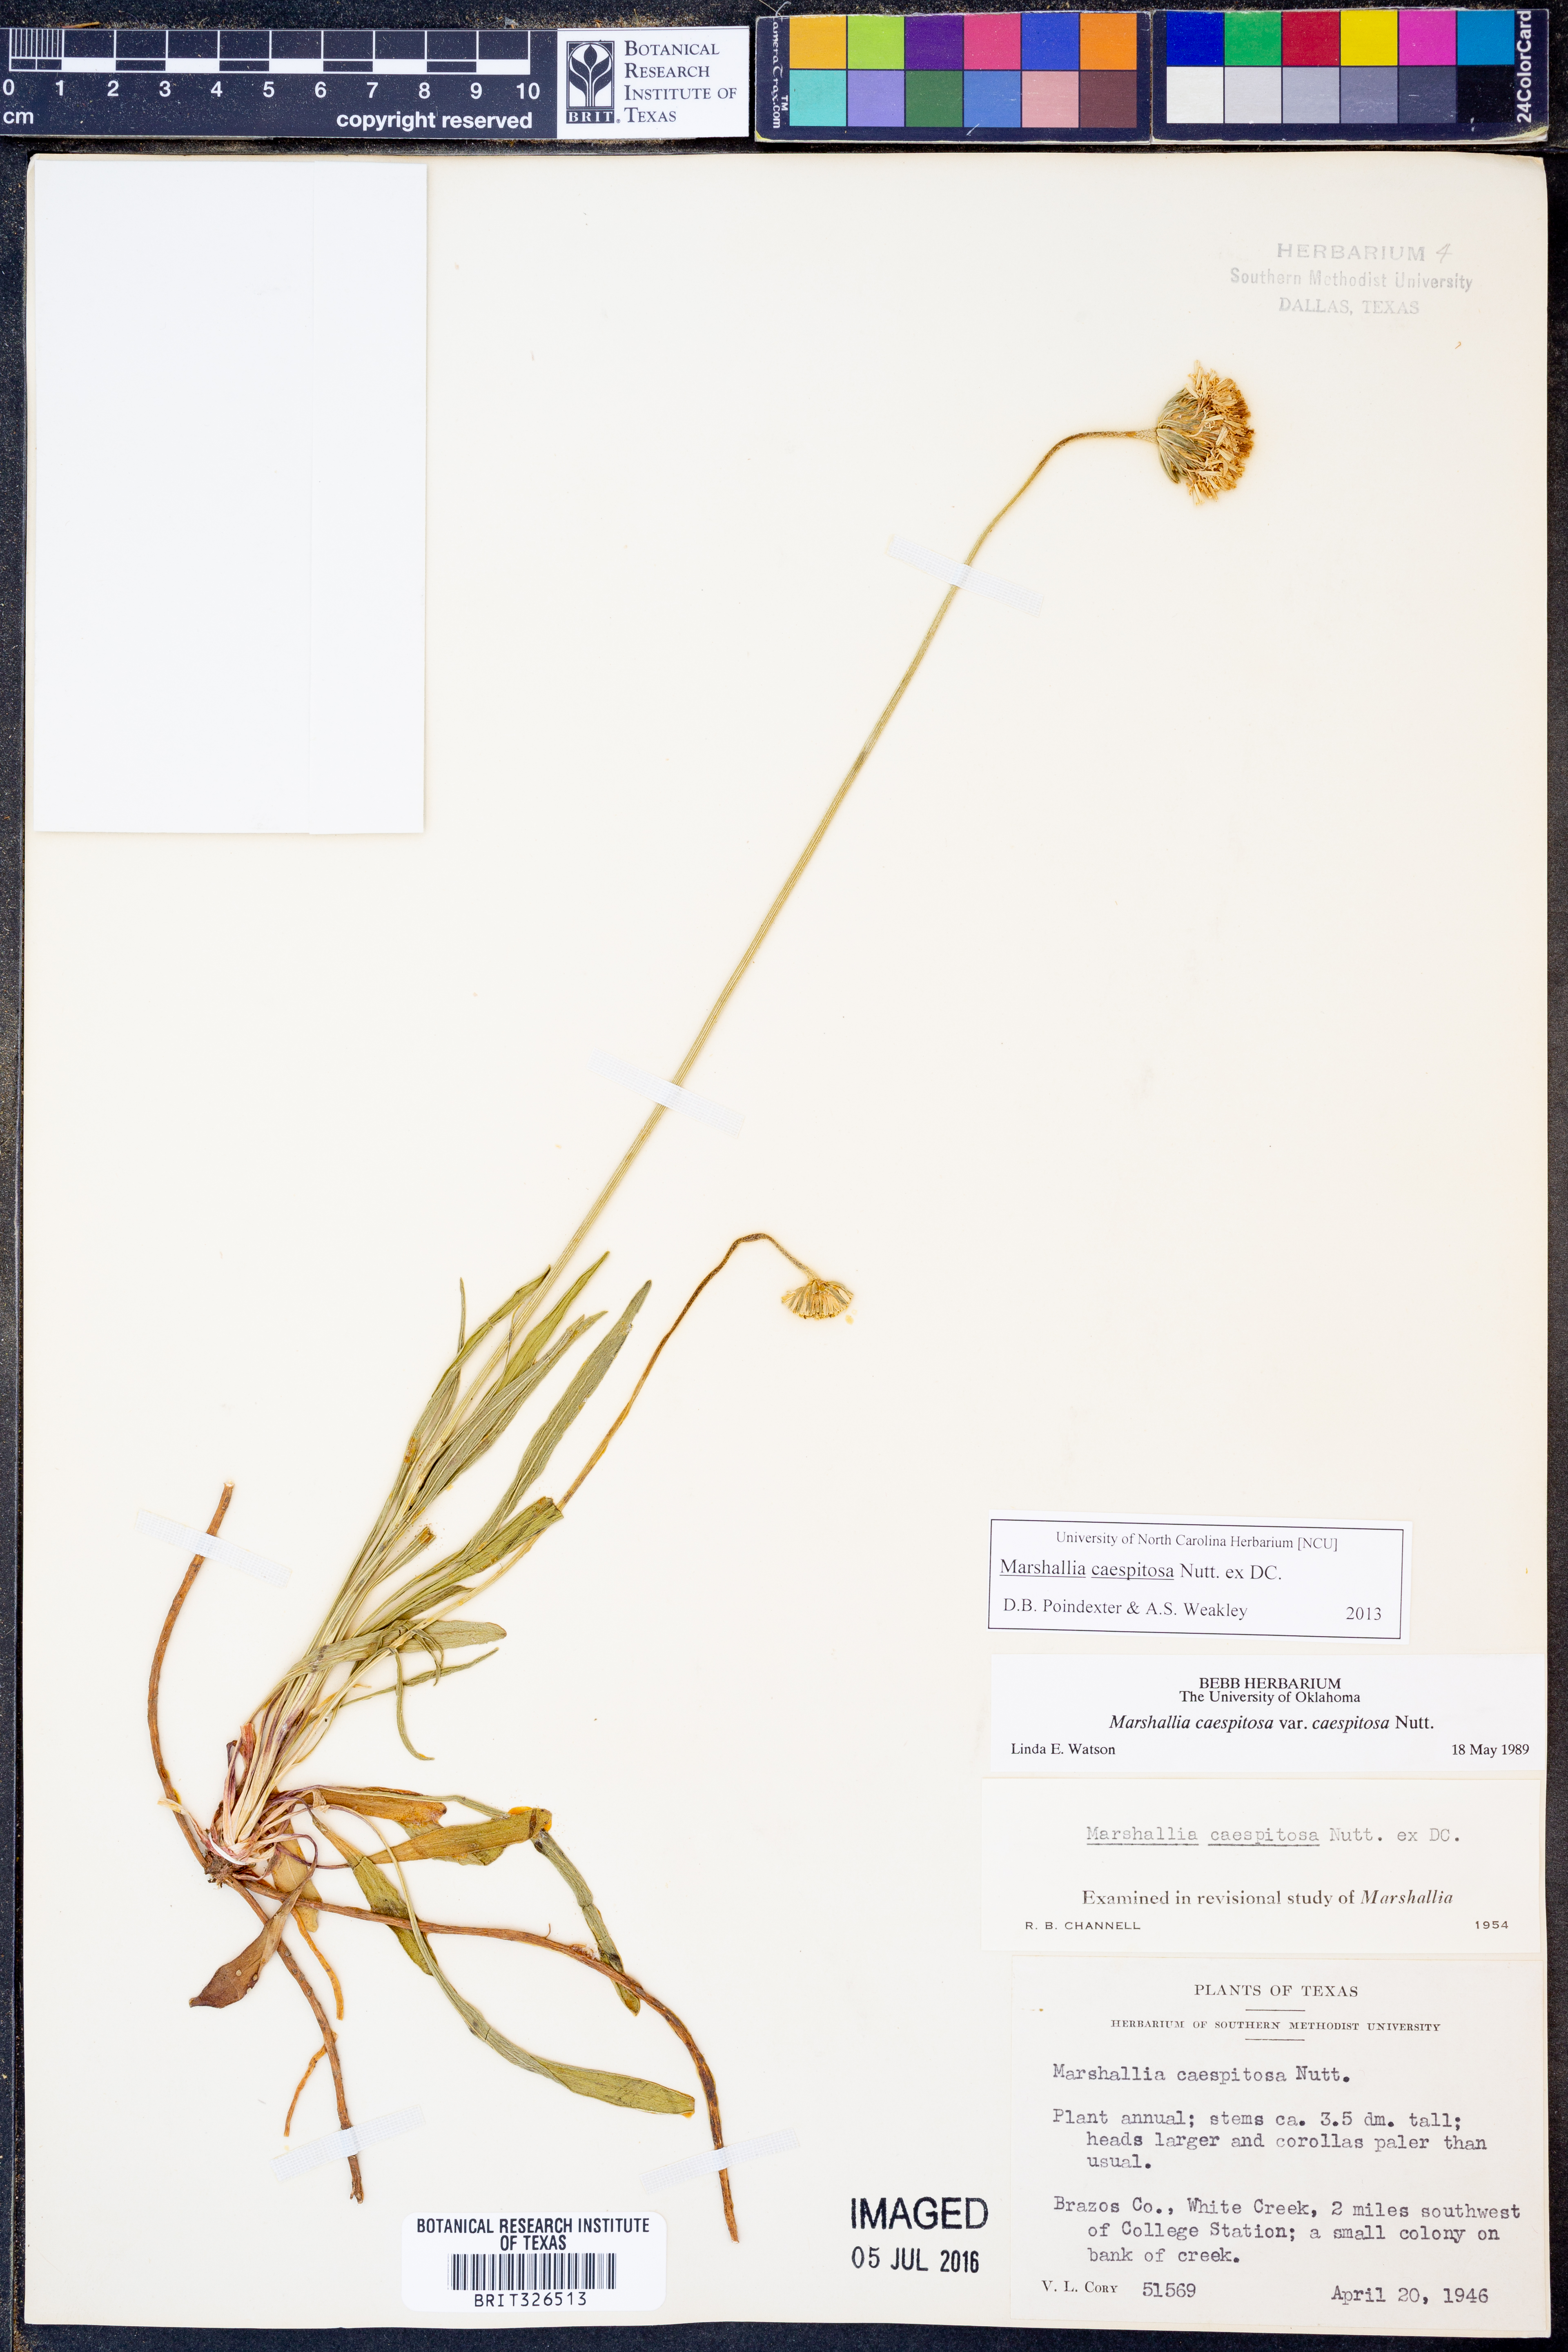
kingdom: Plantae
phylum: Tracheophyta
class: Magnoliopsida
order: Asterales
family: Asteraceae
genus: Marshallia
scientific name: Marshallia caespitosa
